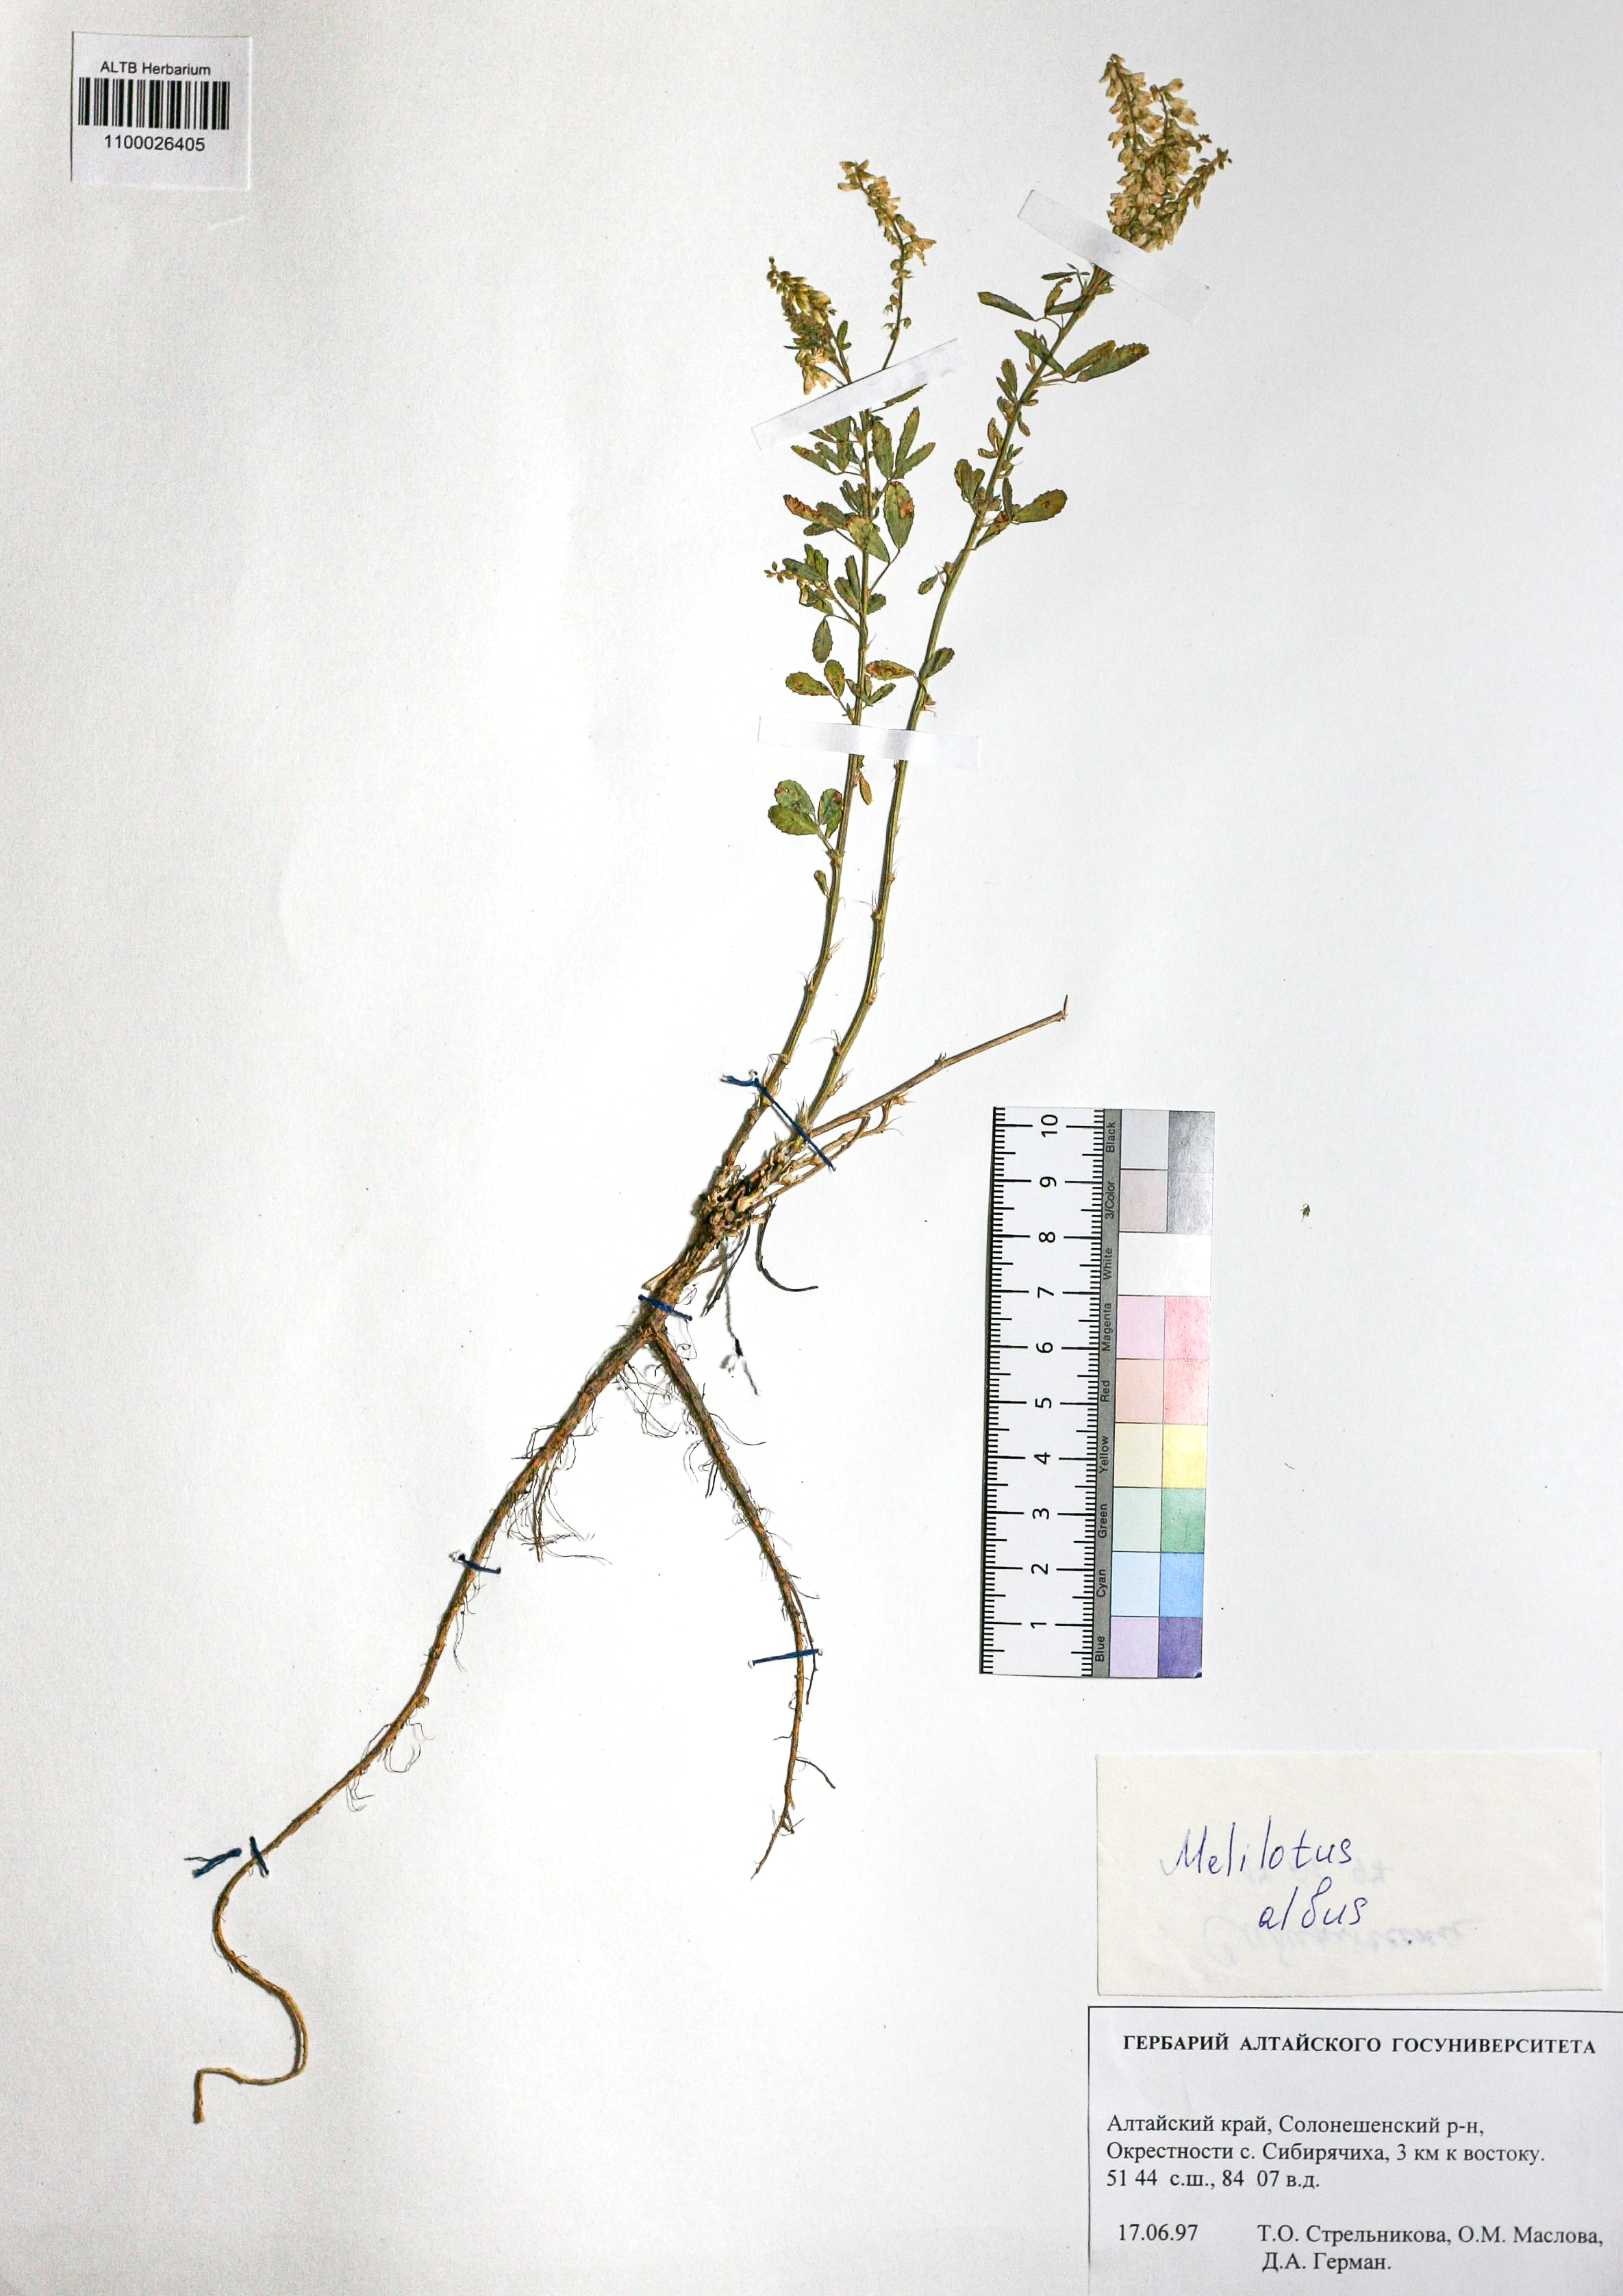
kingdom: Plantae
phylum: Tracheophyta
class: Magnoliopsida
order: Fabales
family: Fabaceae
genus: Melilotus
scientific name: Melilotus albus
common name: White melilot
